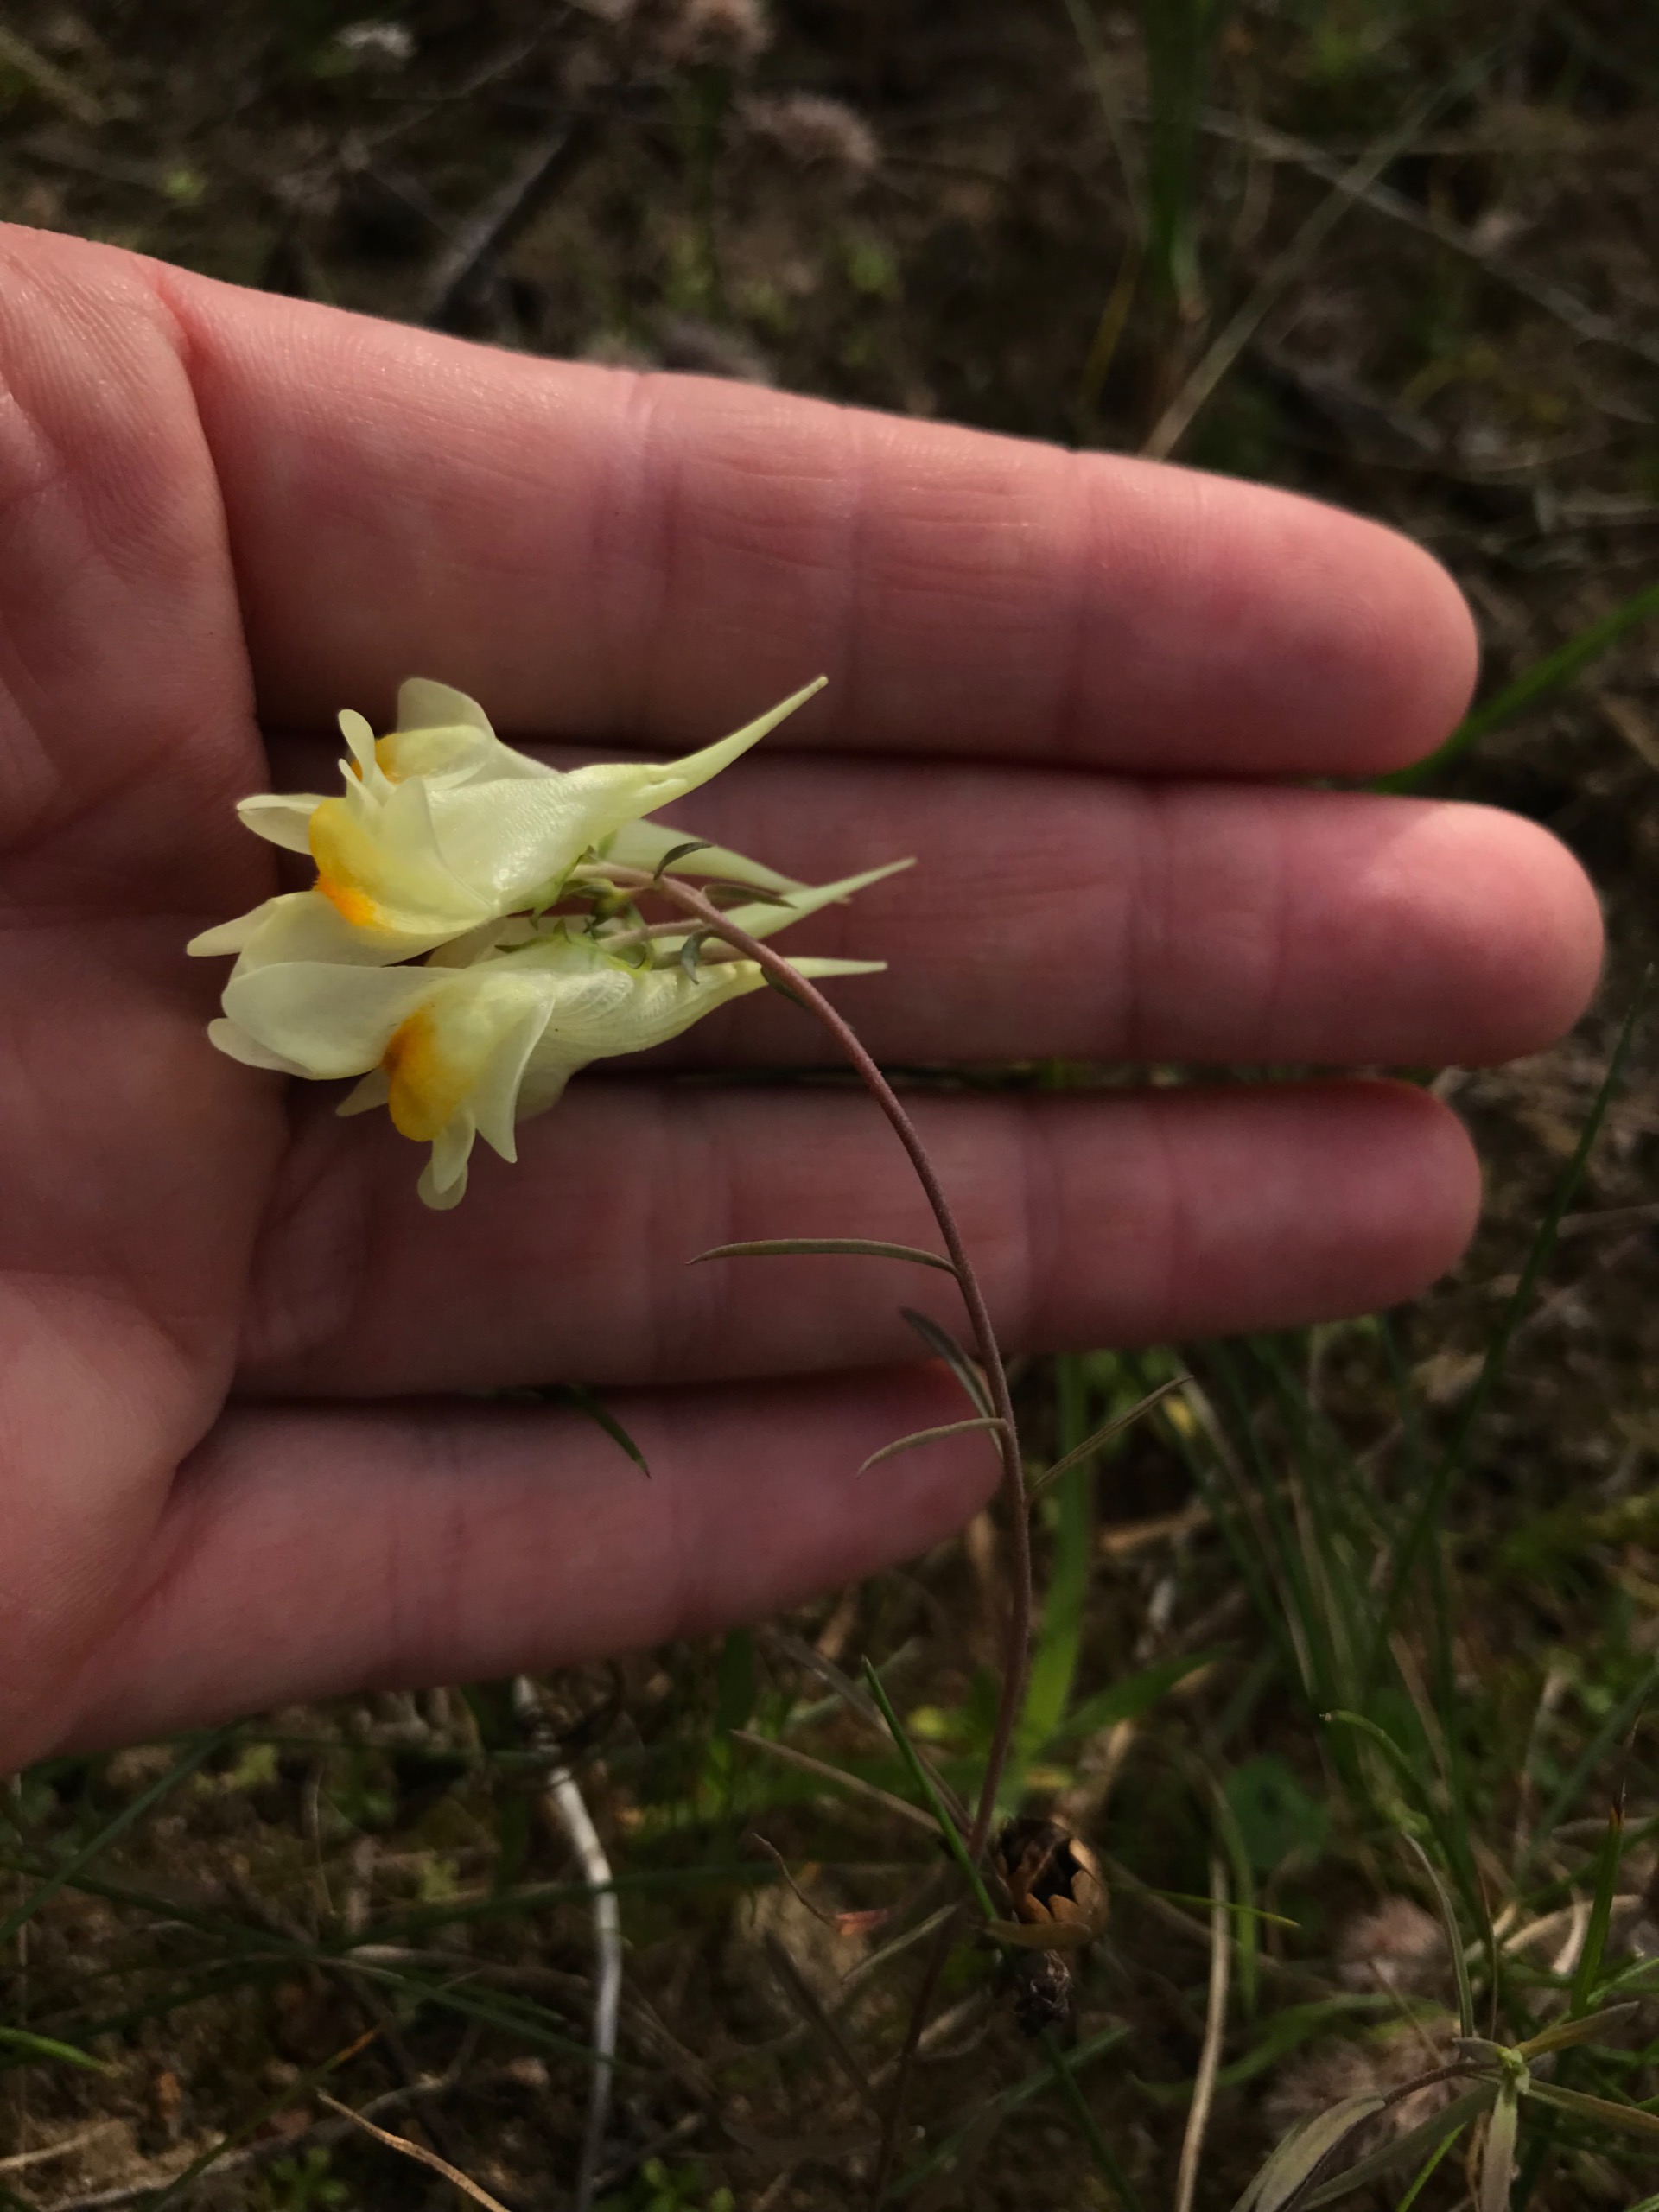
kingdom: Plantae
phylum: Tracheophyta
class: Magnoliopsida
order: Lamiales
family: Plantaginaceae
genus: Linaria
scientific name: Linaria vulgaris
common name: Almindelig torskemund
